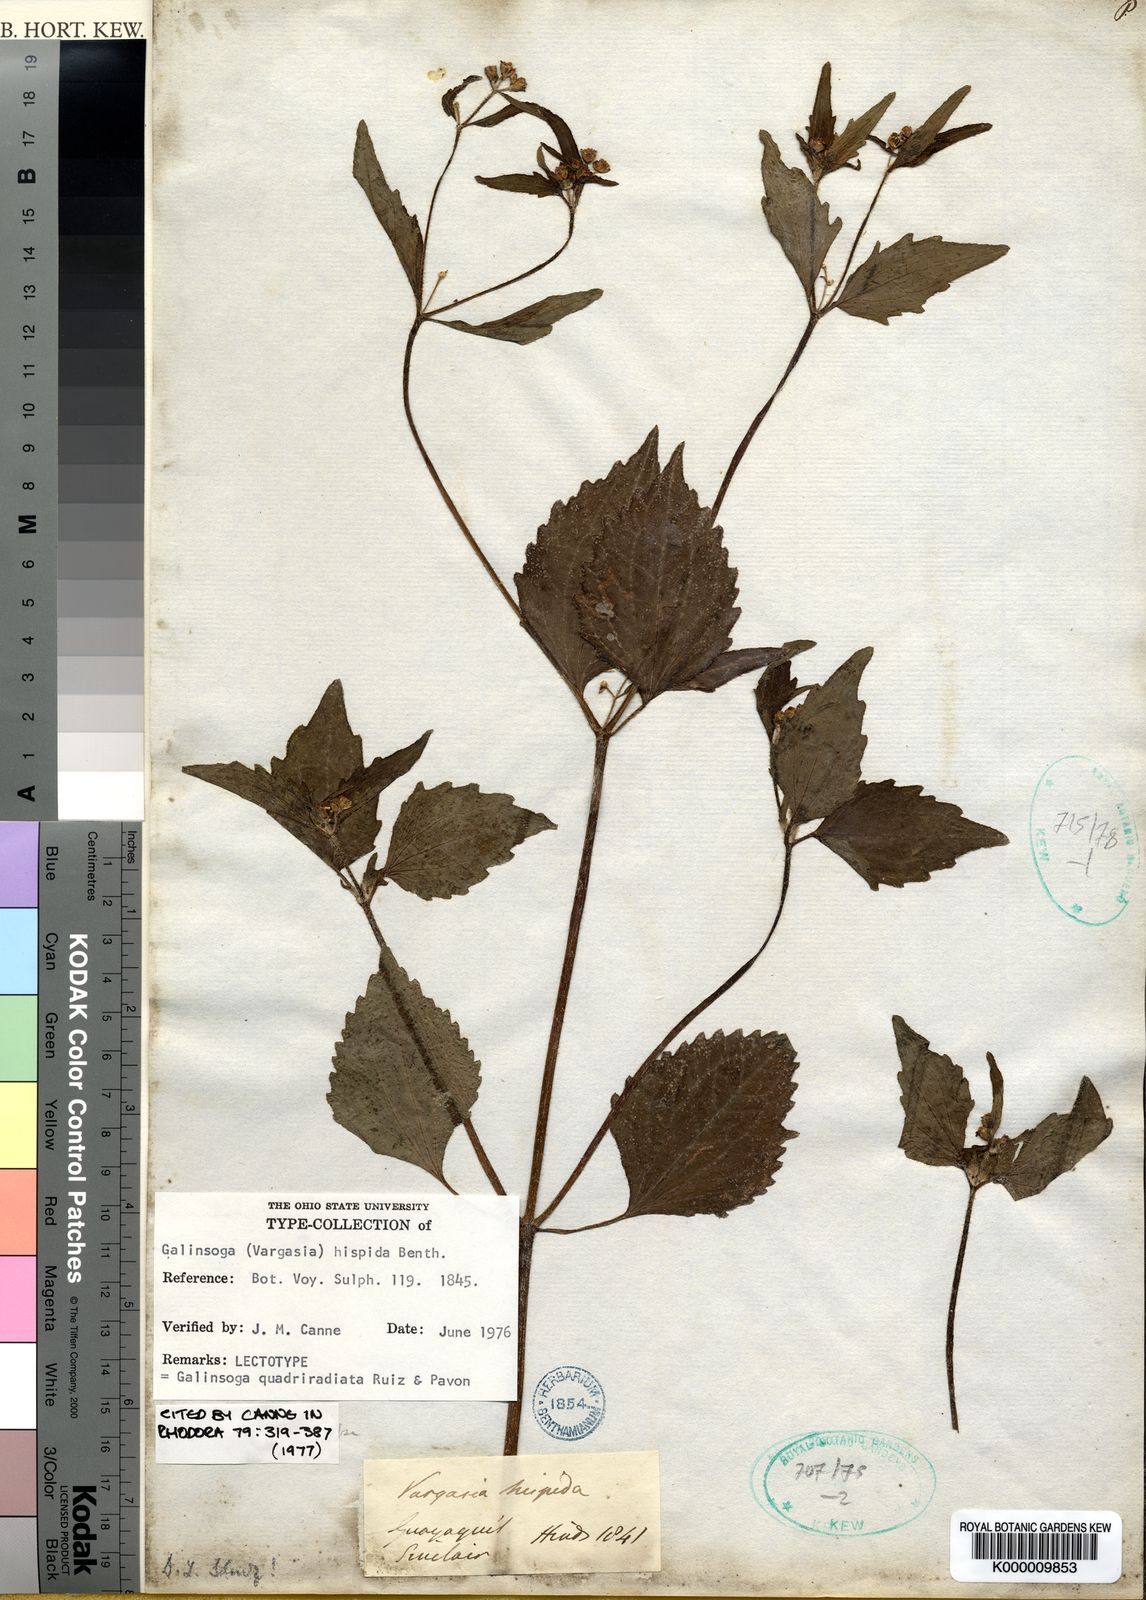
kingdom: Plantae
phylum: Tracheophyta
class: Magnoliopsida
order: Asterales
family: Asteraceae
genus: Galinsoga
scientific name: Galinsoga quadriradiata
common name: Shaggy soldier
